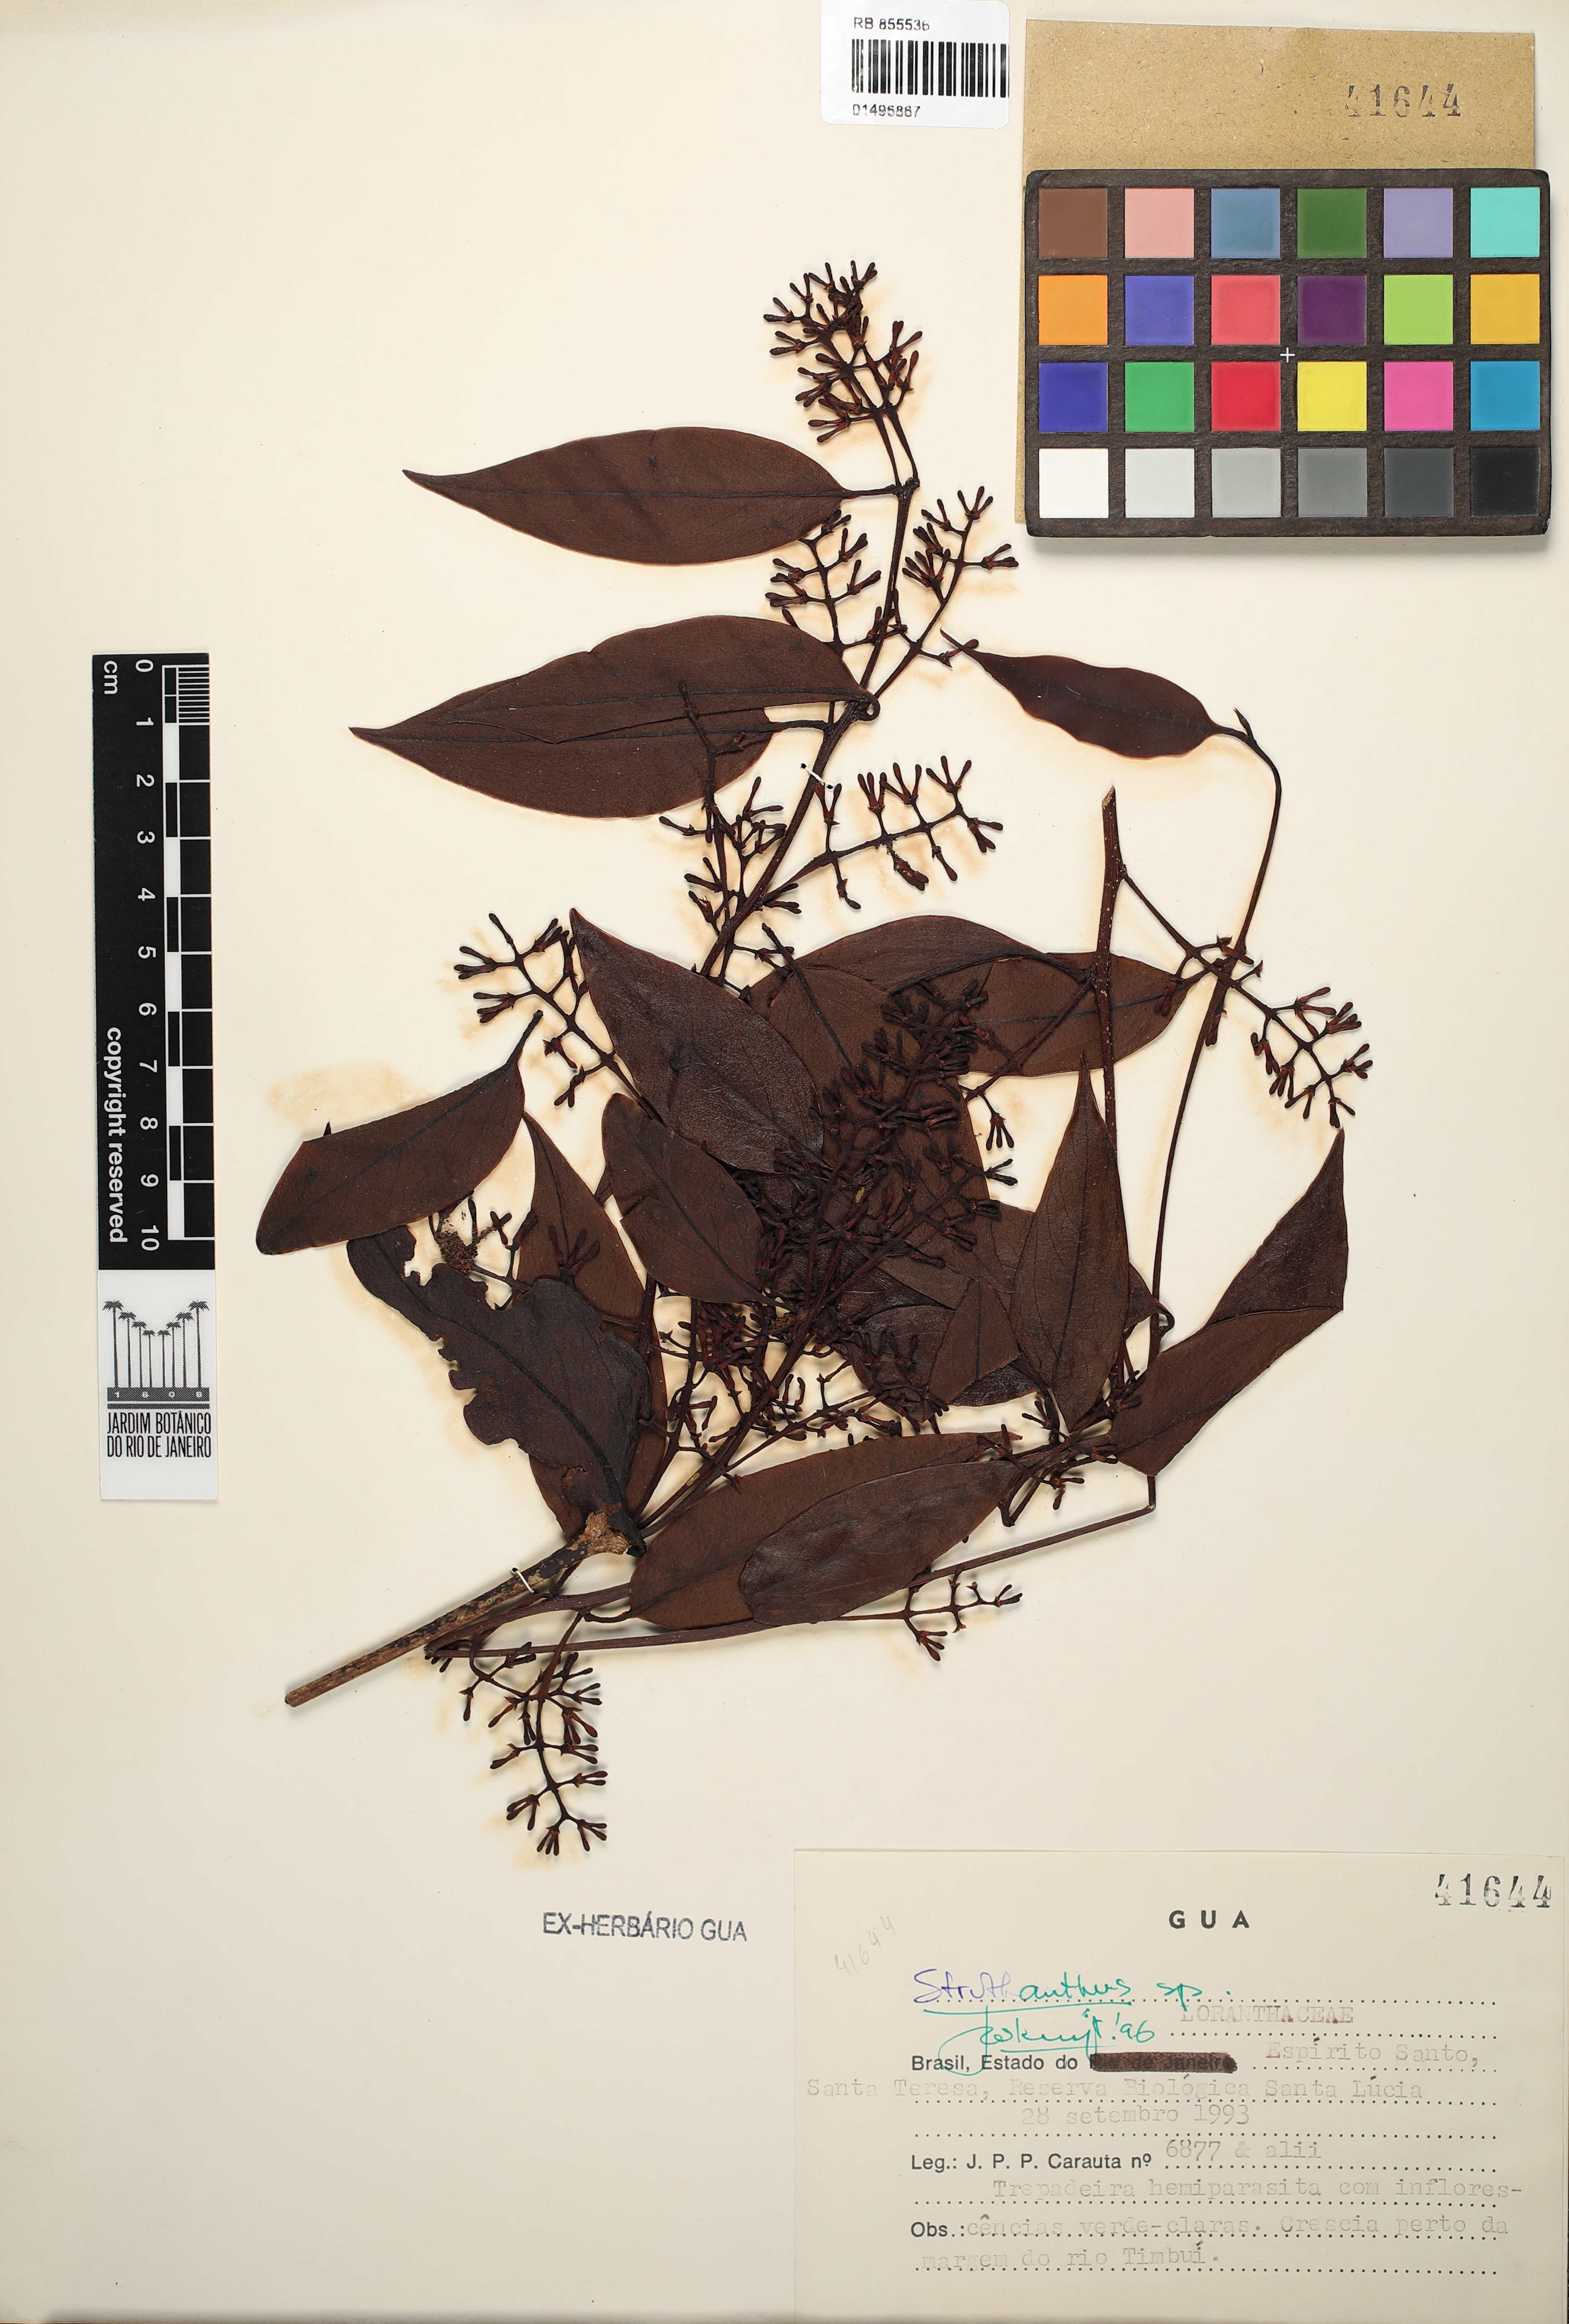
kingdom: Plantae
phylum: Tracheophyta
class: Magnoliopsida
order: Santalales
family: Loranthaceae
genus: Struthanthus
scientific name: Struthanthus
